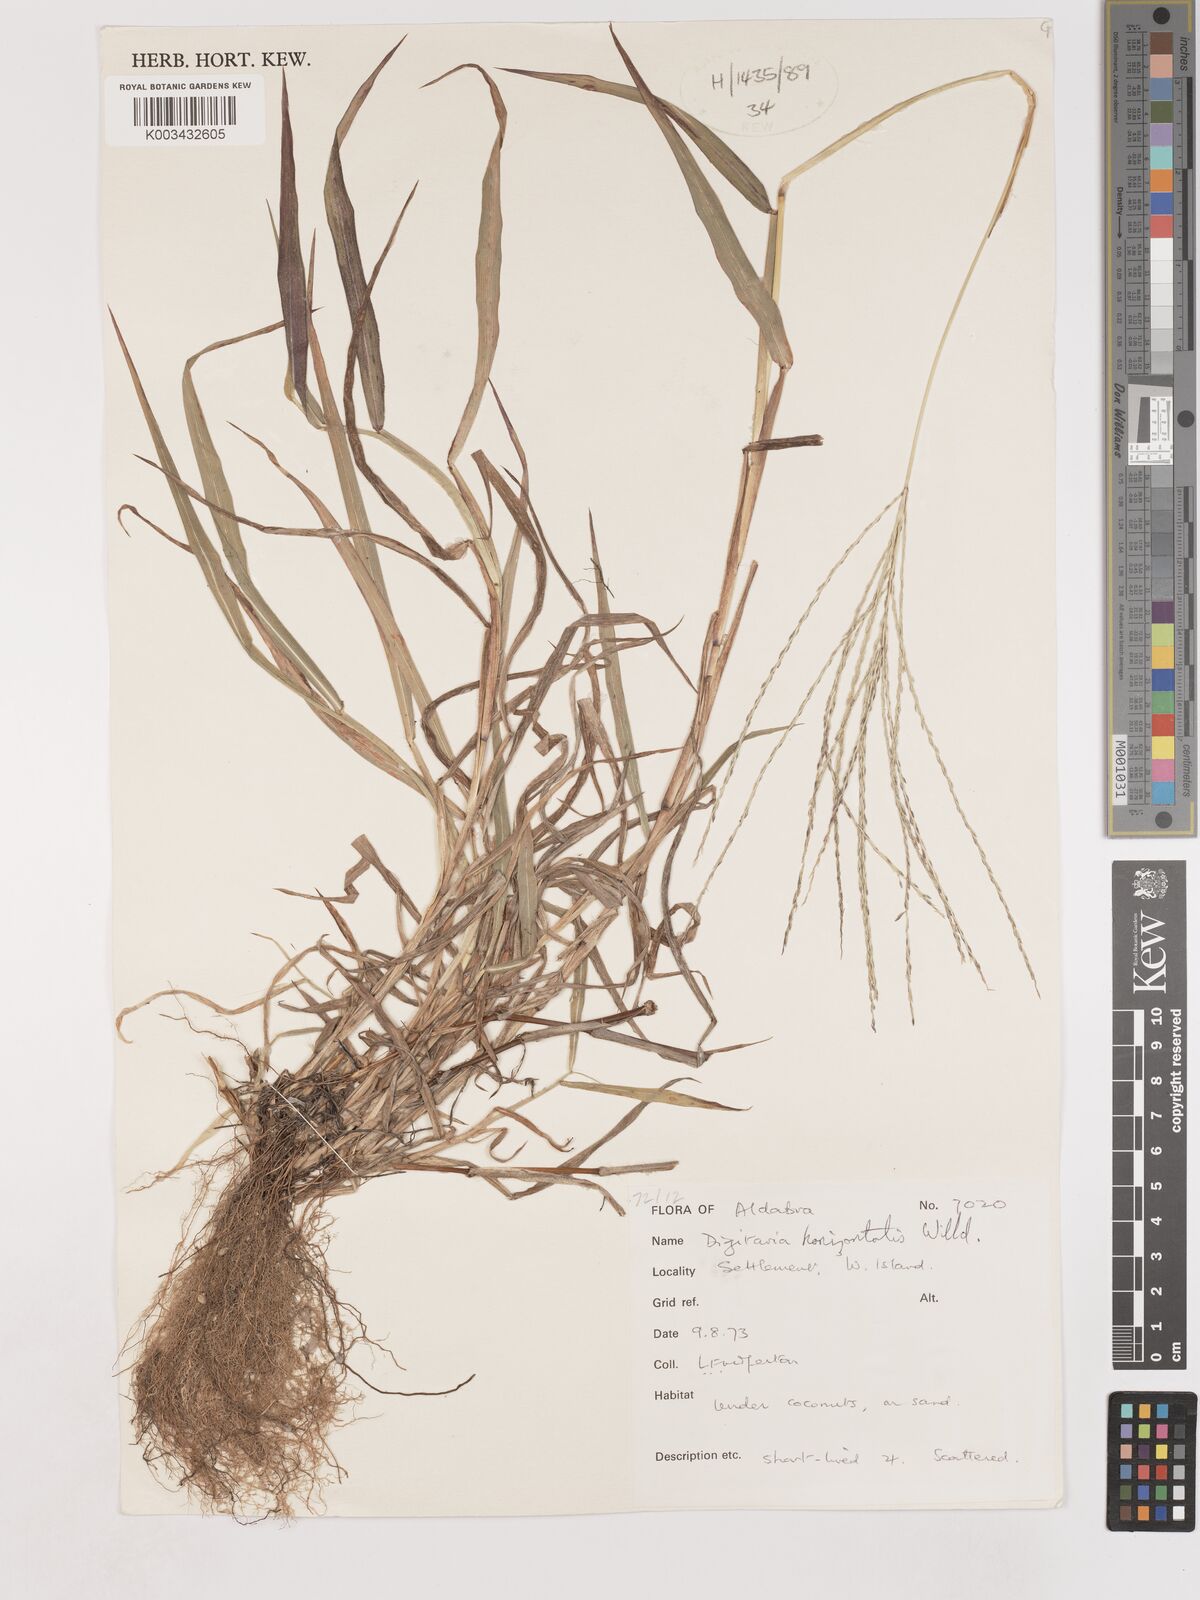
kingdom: Plantae
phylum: Tracheophyta
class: Liliopsida
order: Poales
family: Poaceae
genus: Digitaria
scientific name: Digitaria horizontalis
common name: Jamaican crabgrass
